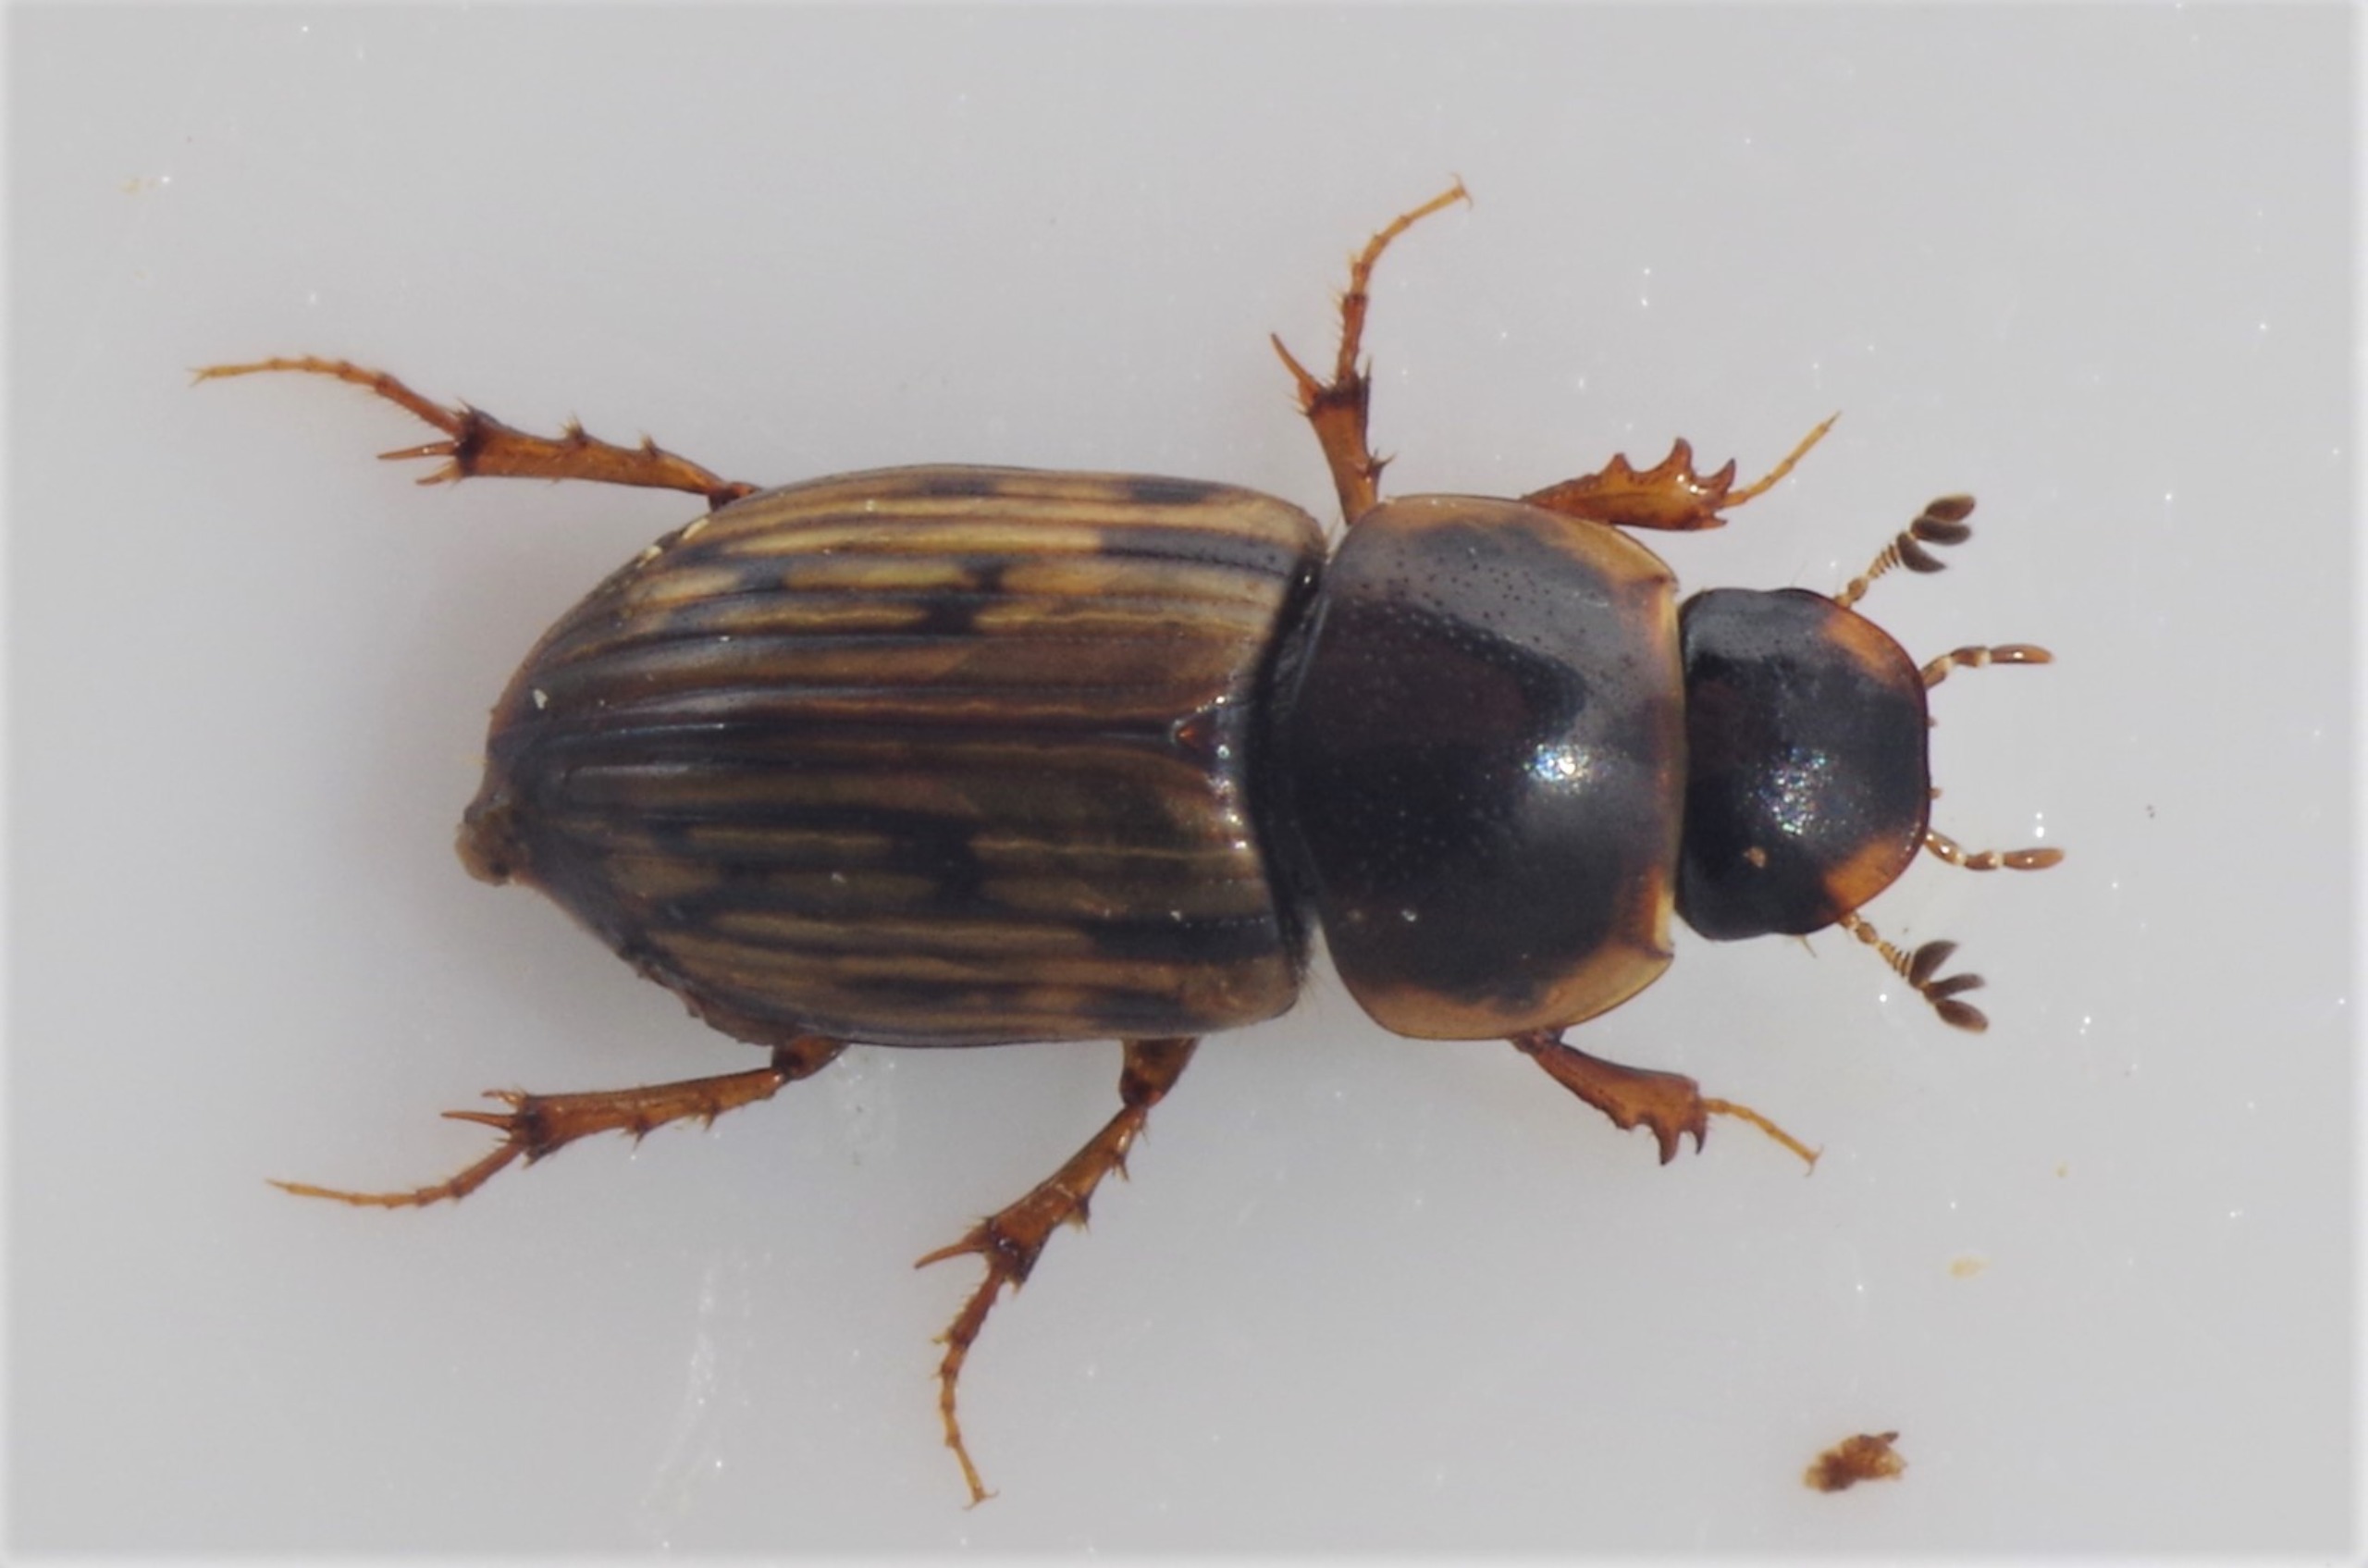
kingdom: Animalia
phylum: Arthropoda
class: Insecta
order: Coleoptera
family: Scarabaeidae
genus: Volinus
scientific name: Volinus sticticus
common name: Skovmøgbille
